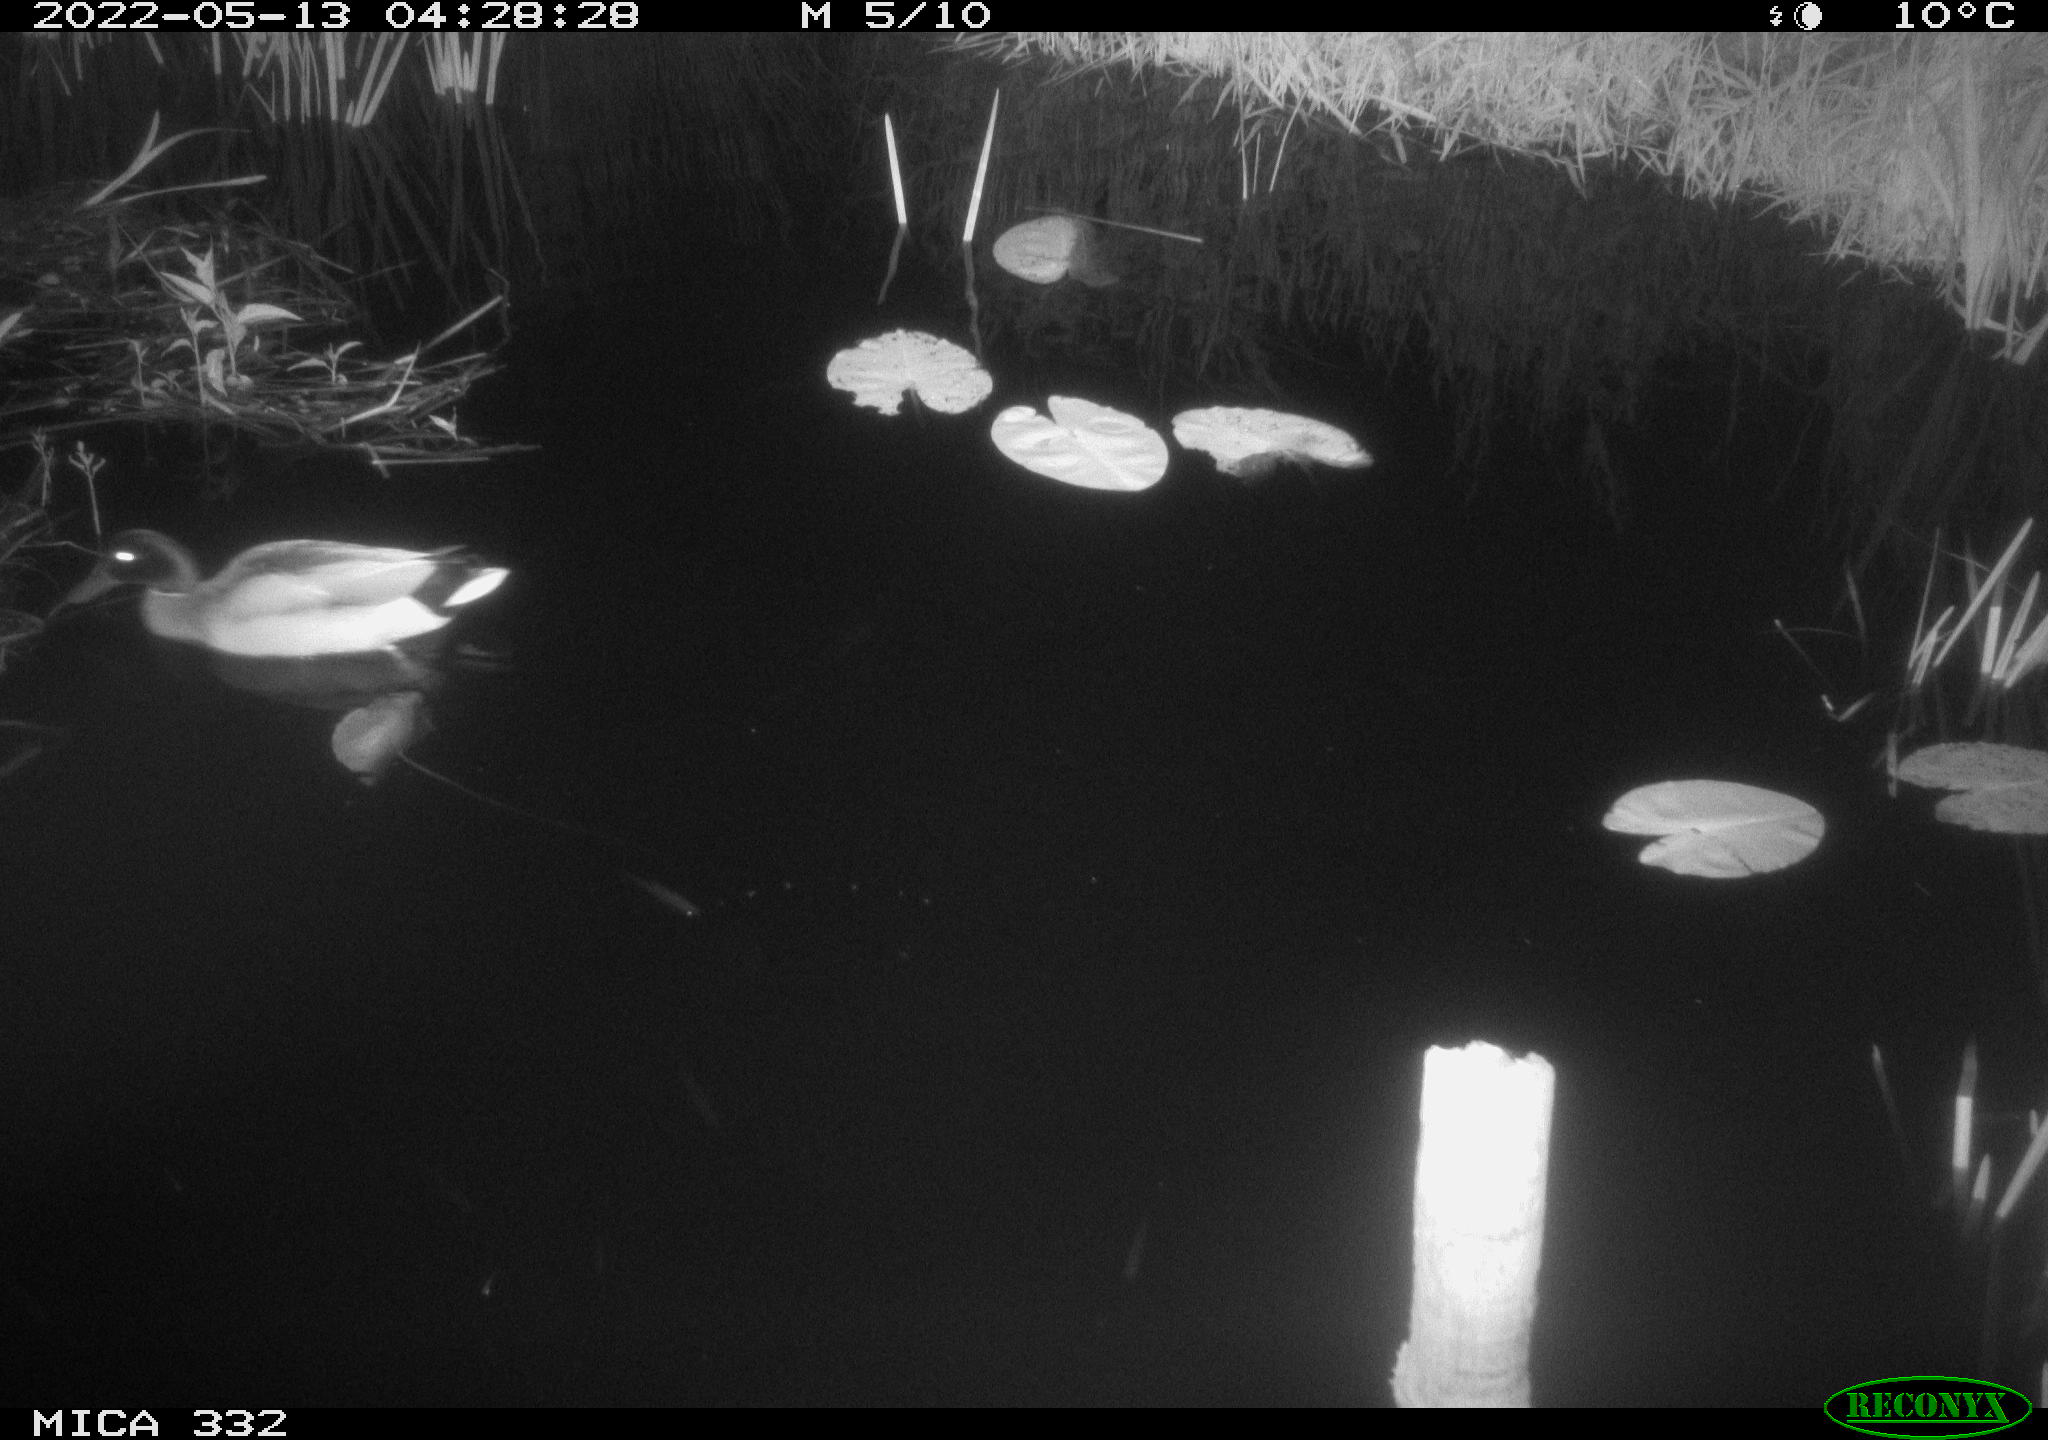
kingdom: Animalia
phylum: Chordata
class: Aves
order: Anseriformes
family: Anatidae
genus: Anas
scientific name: Anas platyrhynchos
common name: Mallard
